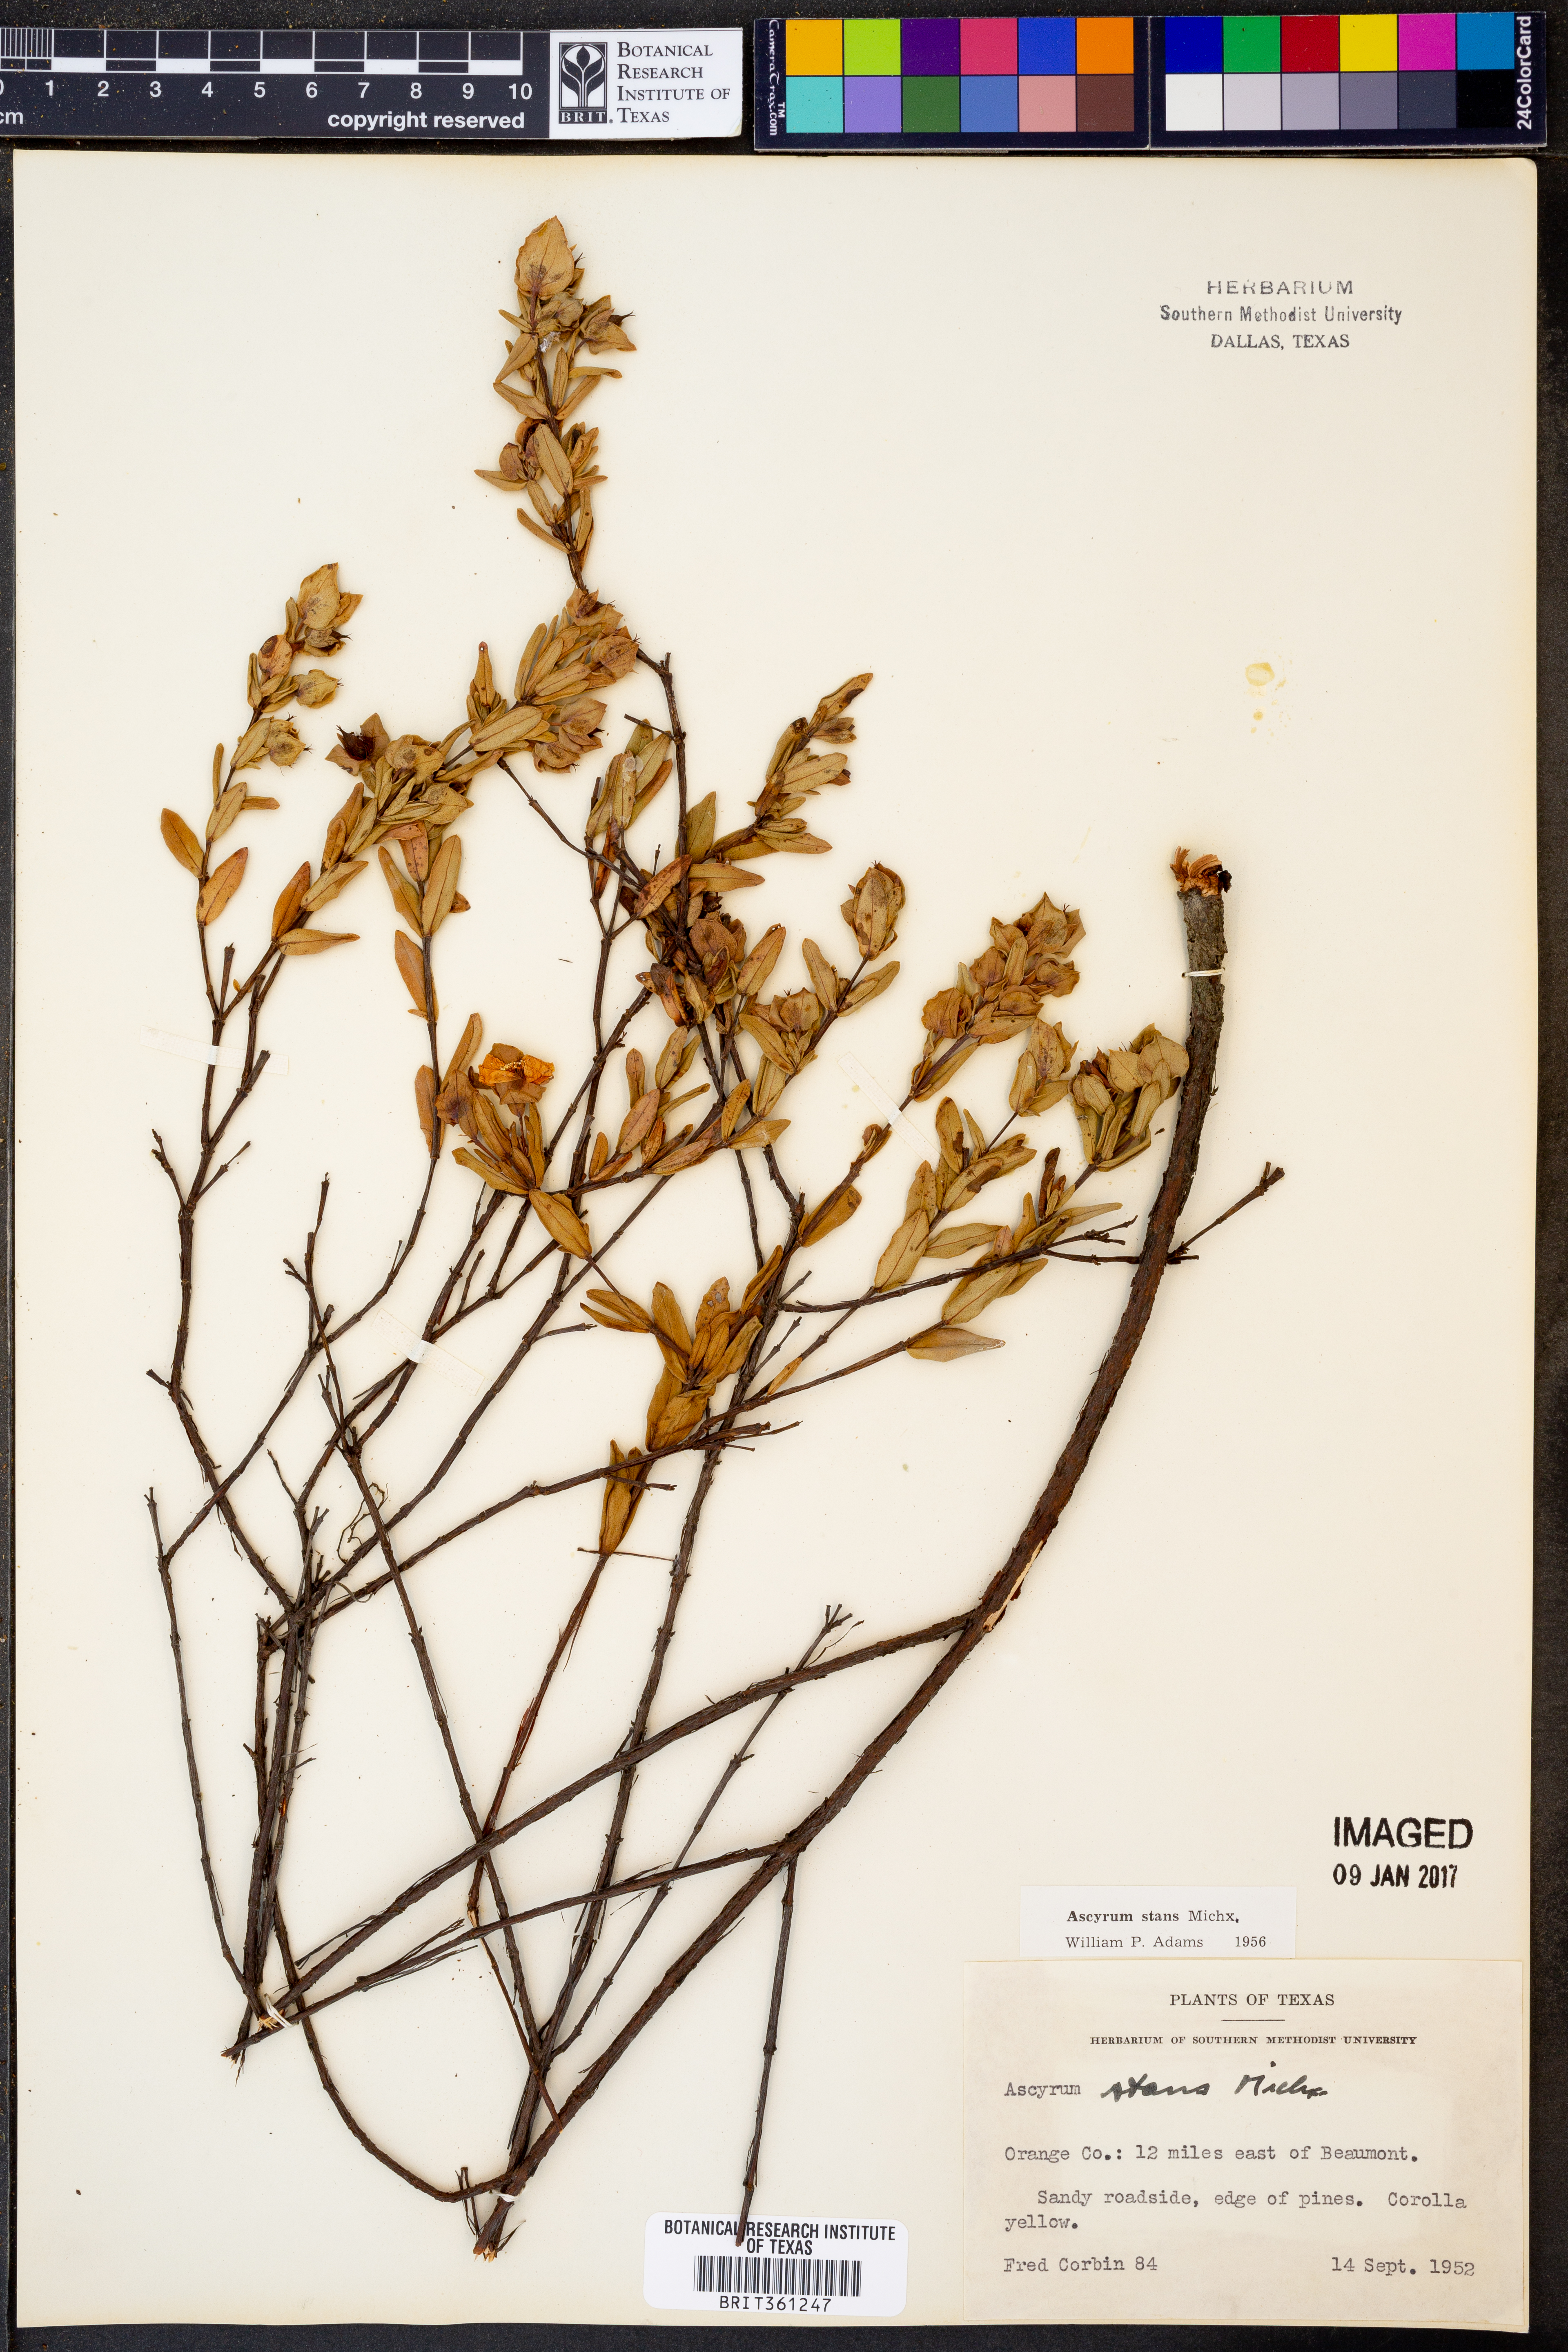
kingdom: Plantae
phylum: Tracheophyta
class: Magnoliopsida
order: Malpighiales
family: Hypericaceae
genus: Hypericum
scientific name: Hypericum crux-andreae
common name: St.-peter's-wort
